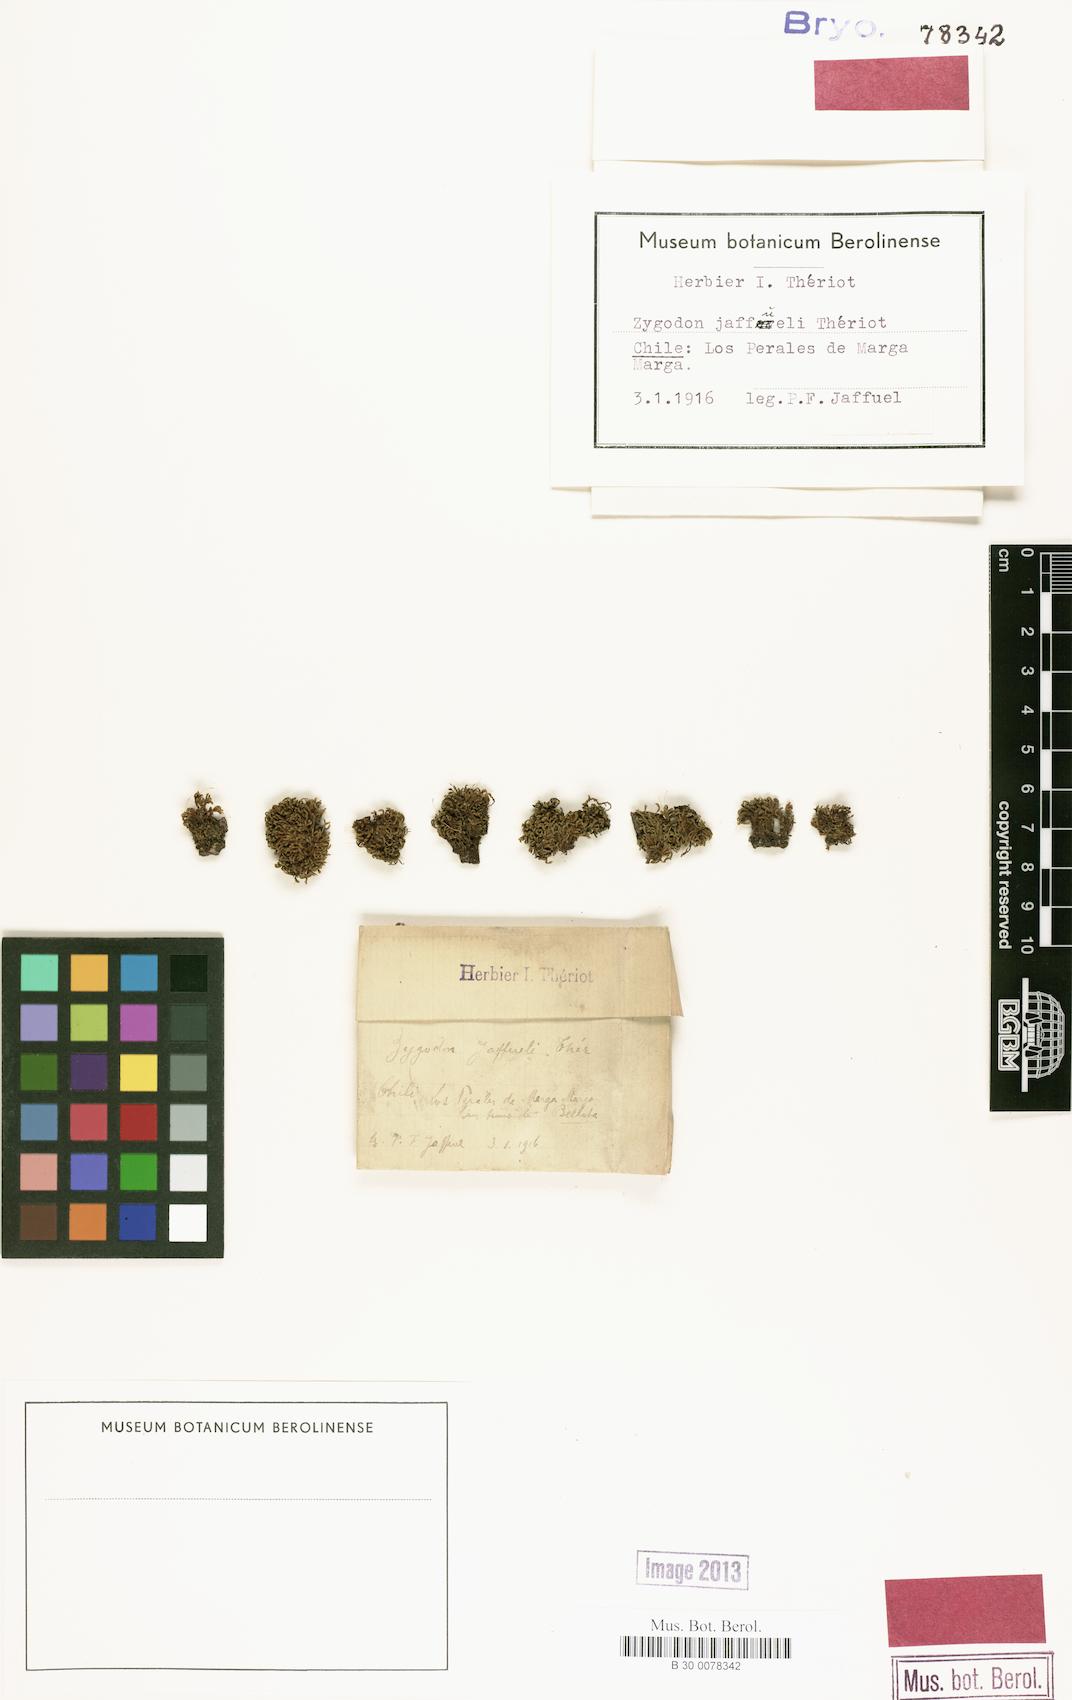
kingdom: Plantae
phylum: Bryophyta
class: Bryopsida
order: Orthotrichales
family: Orthotrichaceae
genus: Zygodon
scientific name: Zygodon liebmannii
